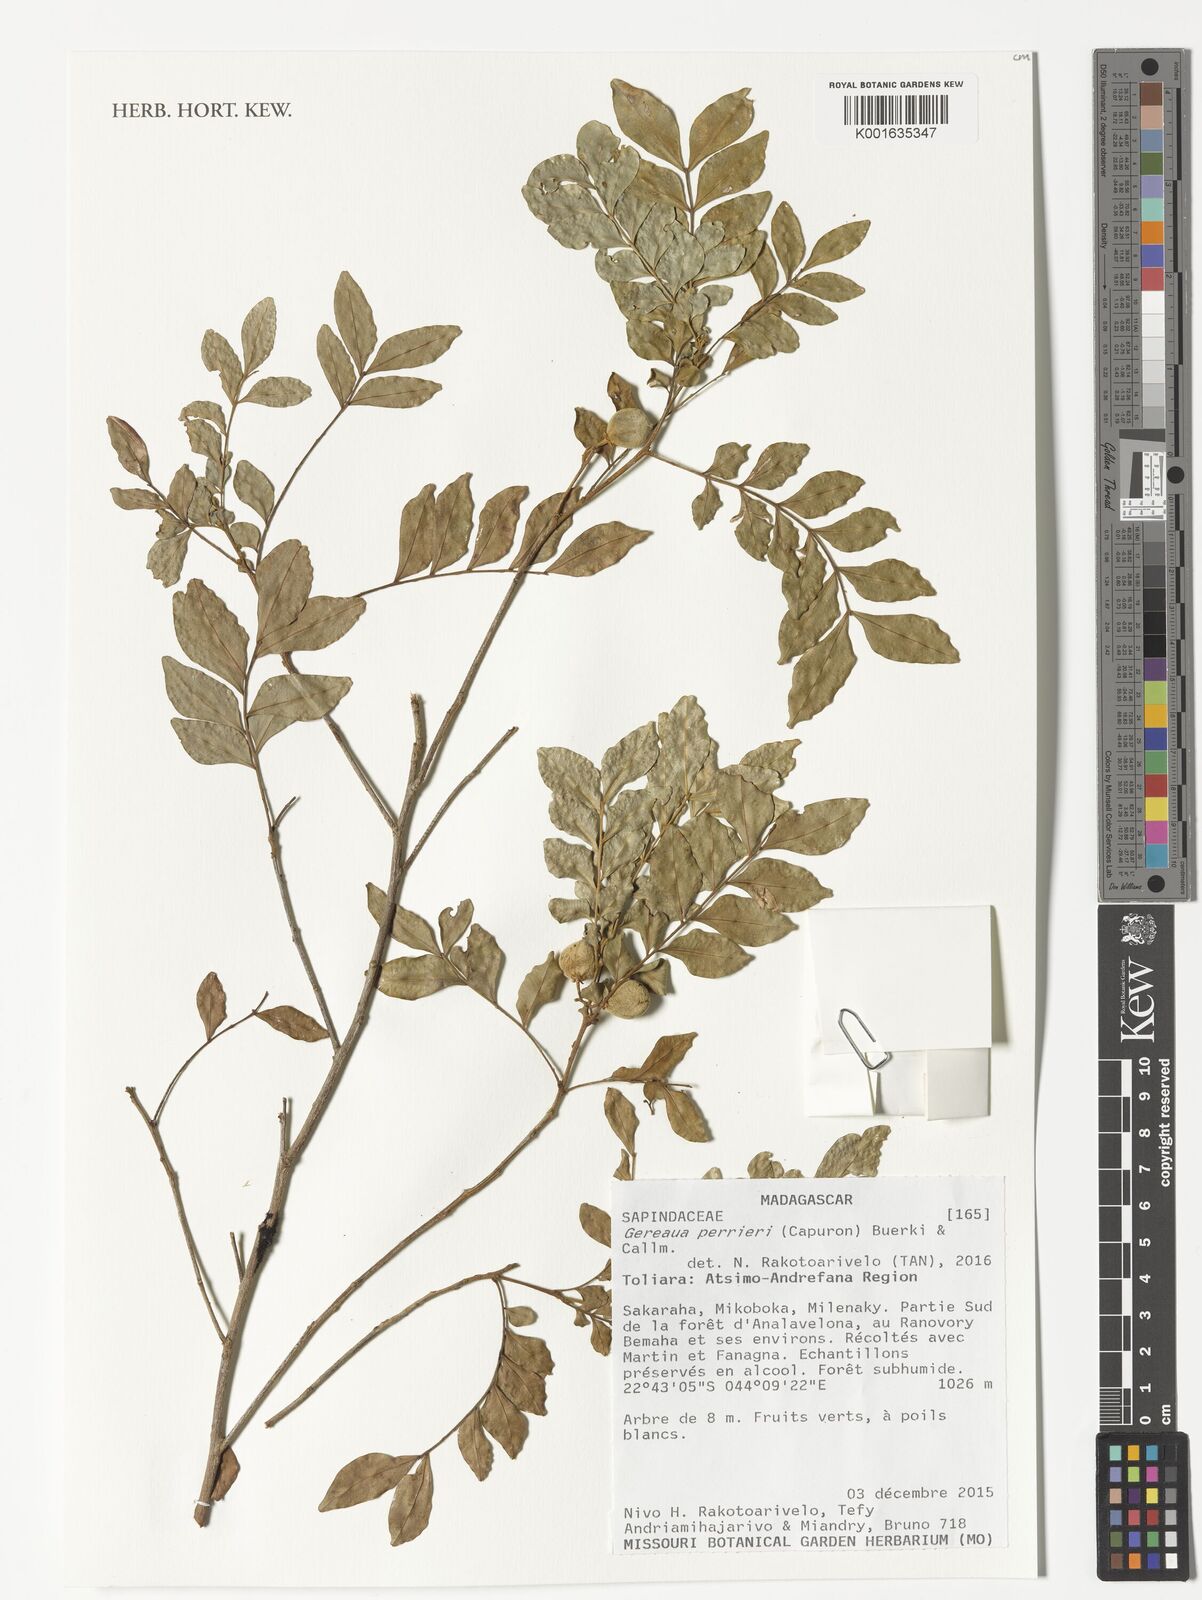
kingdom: Plantae
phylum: Tracheophyta
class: Magnoliopsida
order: Sapindales
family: Sapindaceae
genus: Gereaua
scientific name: Gereaua perrieri
